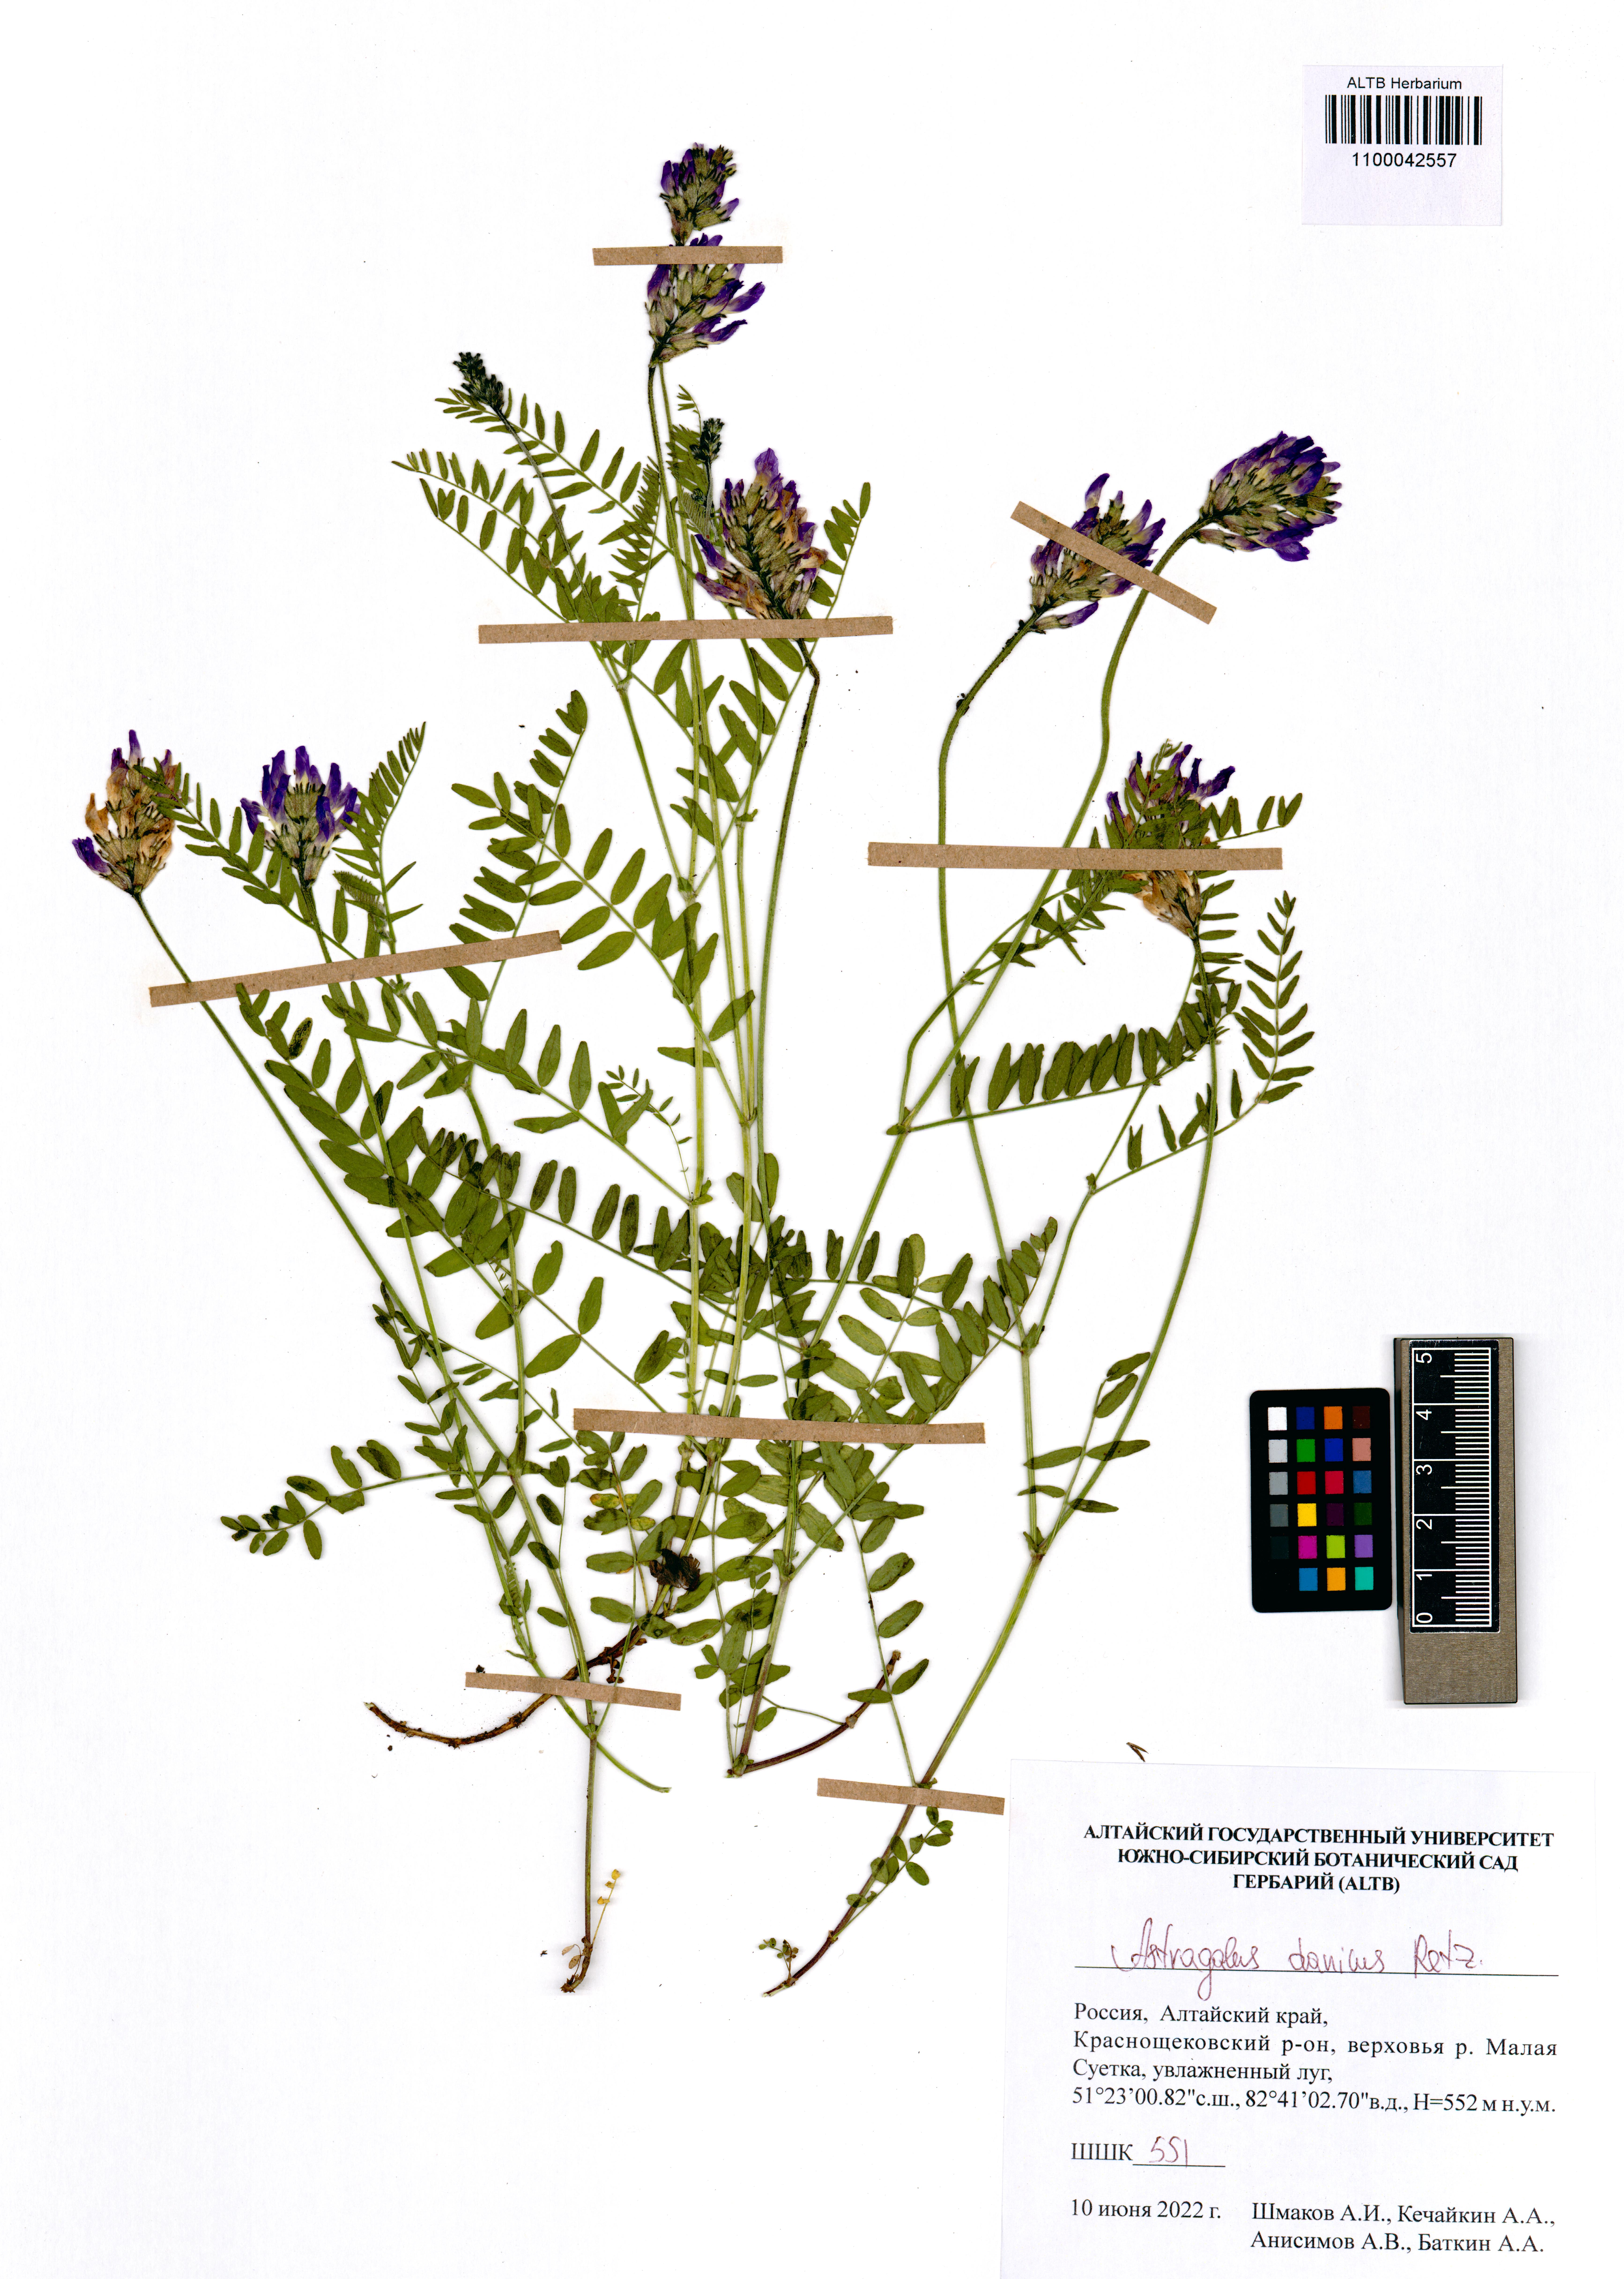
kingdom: Plantae
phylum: Tracheophyta
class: Magnoliopsida
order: Fabales
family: Fabaceae
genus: Astragalus
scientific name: Astragalus danicus
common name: Purple milk-vetch
